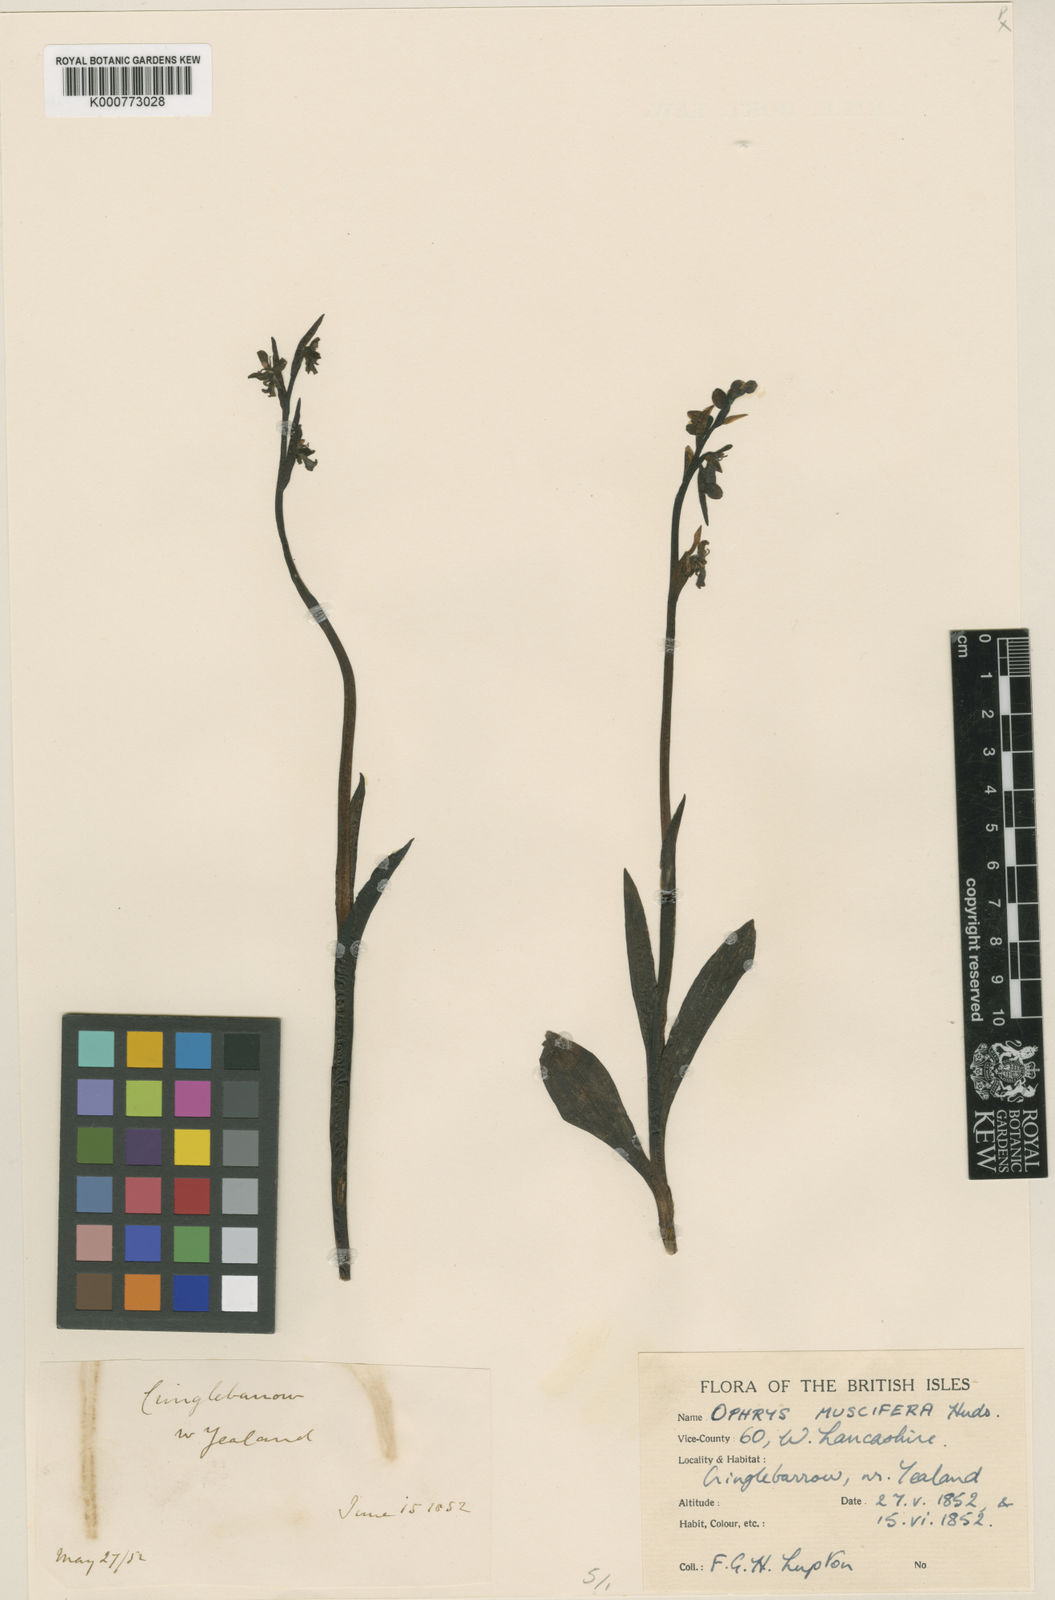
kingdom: Plantae
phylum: Tracheophyta
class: Liliopsida
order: Asparagales
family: Orchidaceae
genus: Ophrys
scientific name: Ophrys insectifera
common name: Fly orchid
